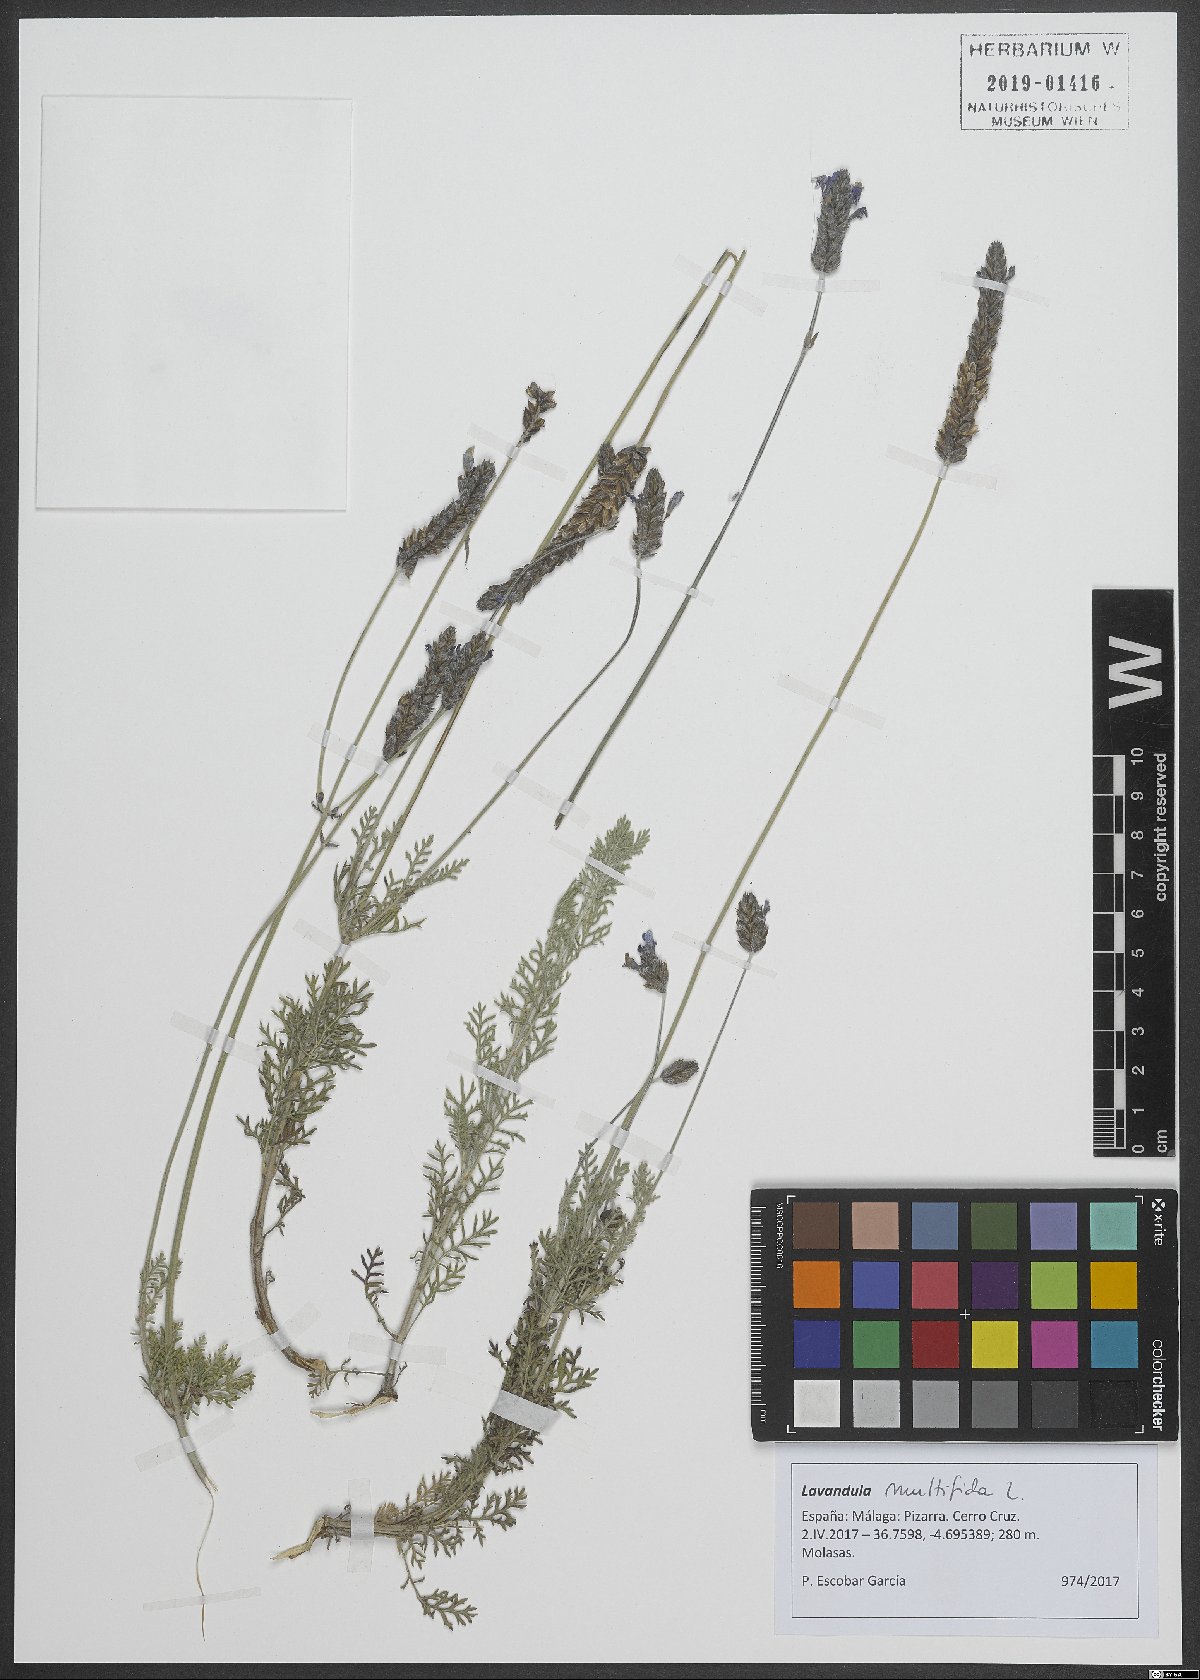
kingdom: Plantae
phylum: Tracheophyta
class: Magnoliopsida
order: Lamiales
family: Lamiaceae
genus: Lavandula
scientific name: Lavandula multifida
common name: Fern-leaf lavender
